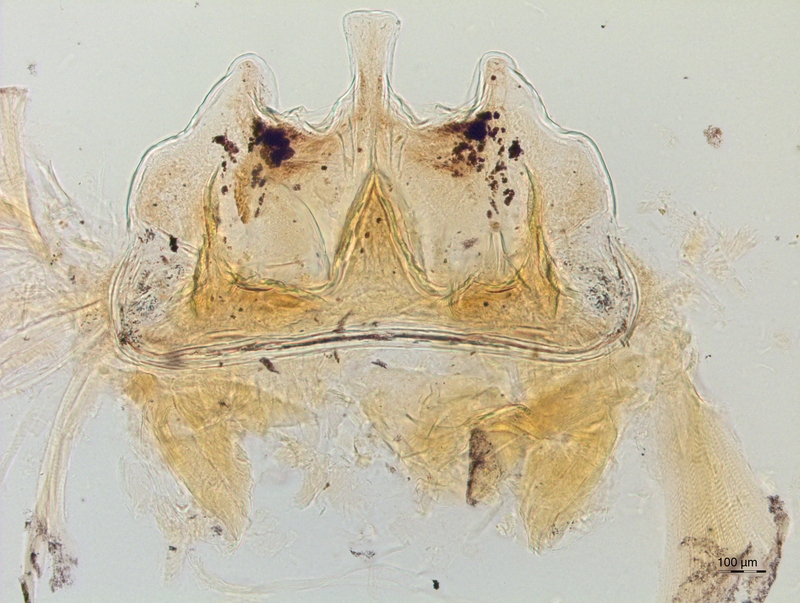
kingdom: Animalia
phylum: Arthropoda
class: Diplopoda
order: Chordeumatida
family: Craspedosomatidae
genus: Craspedosoma
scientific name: Craspedosoma rawlinsii
